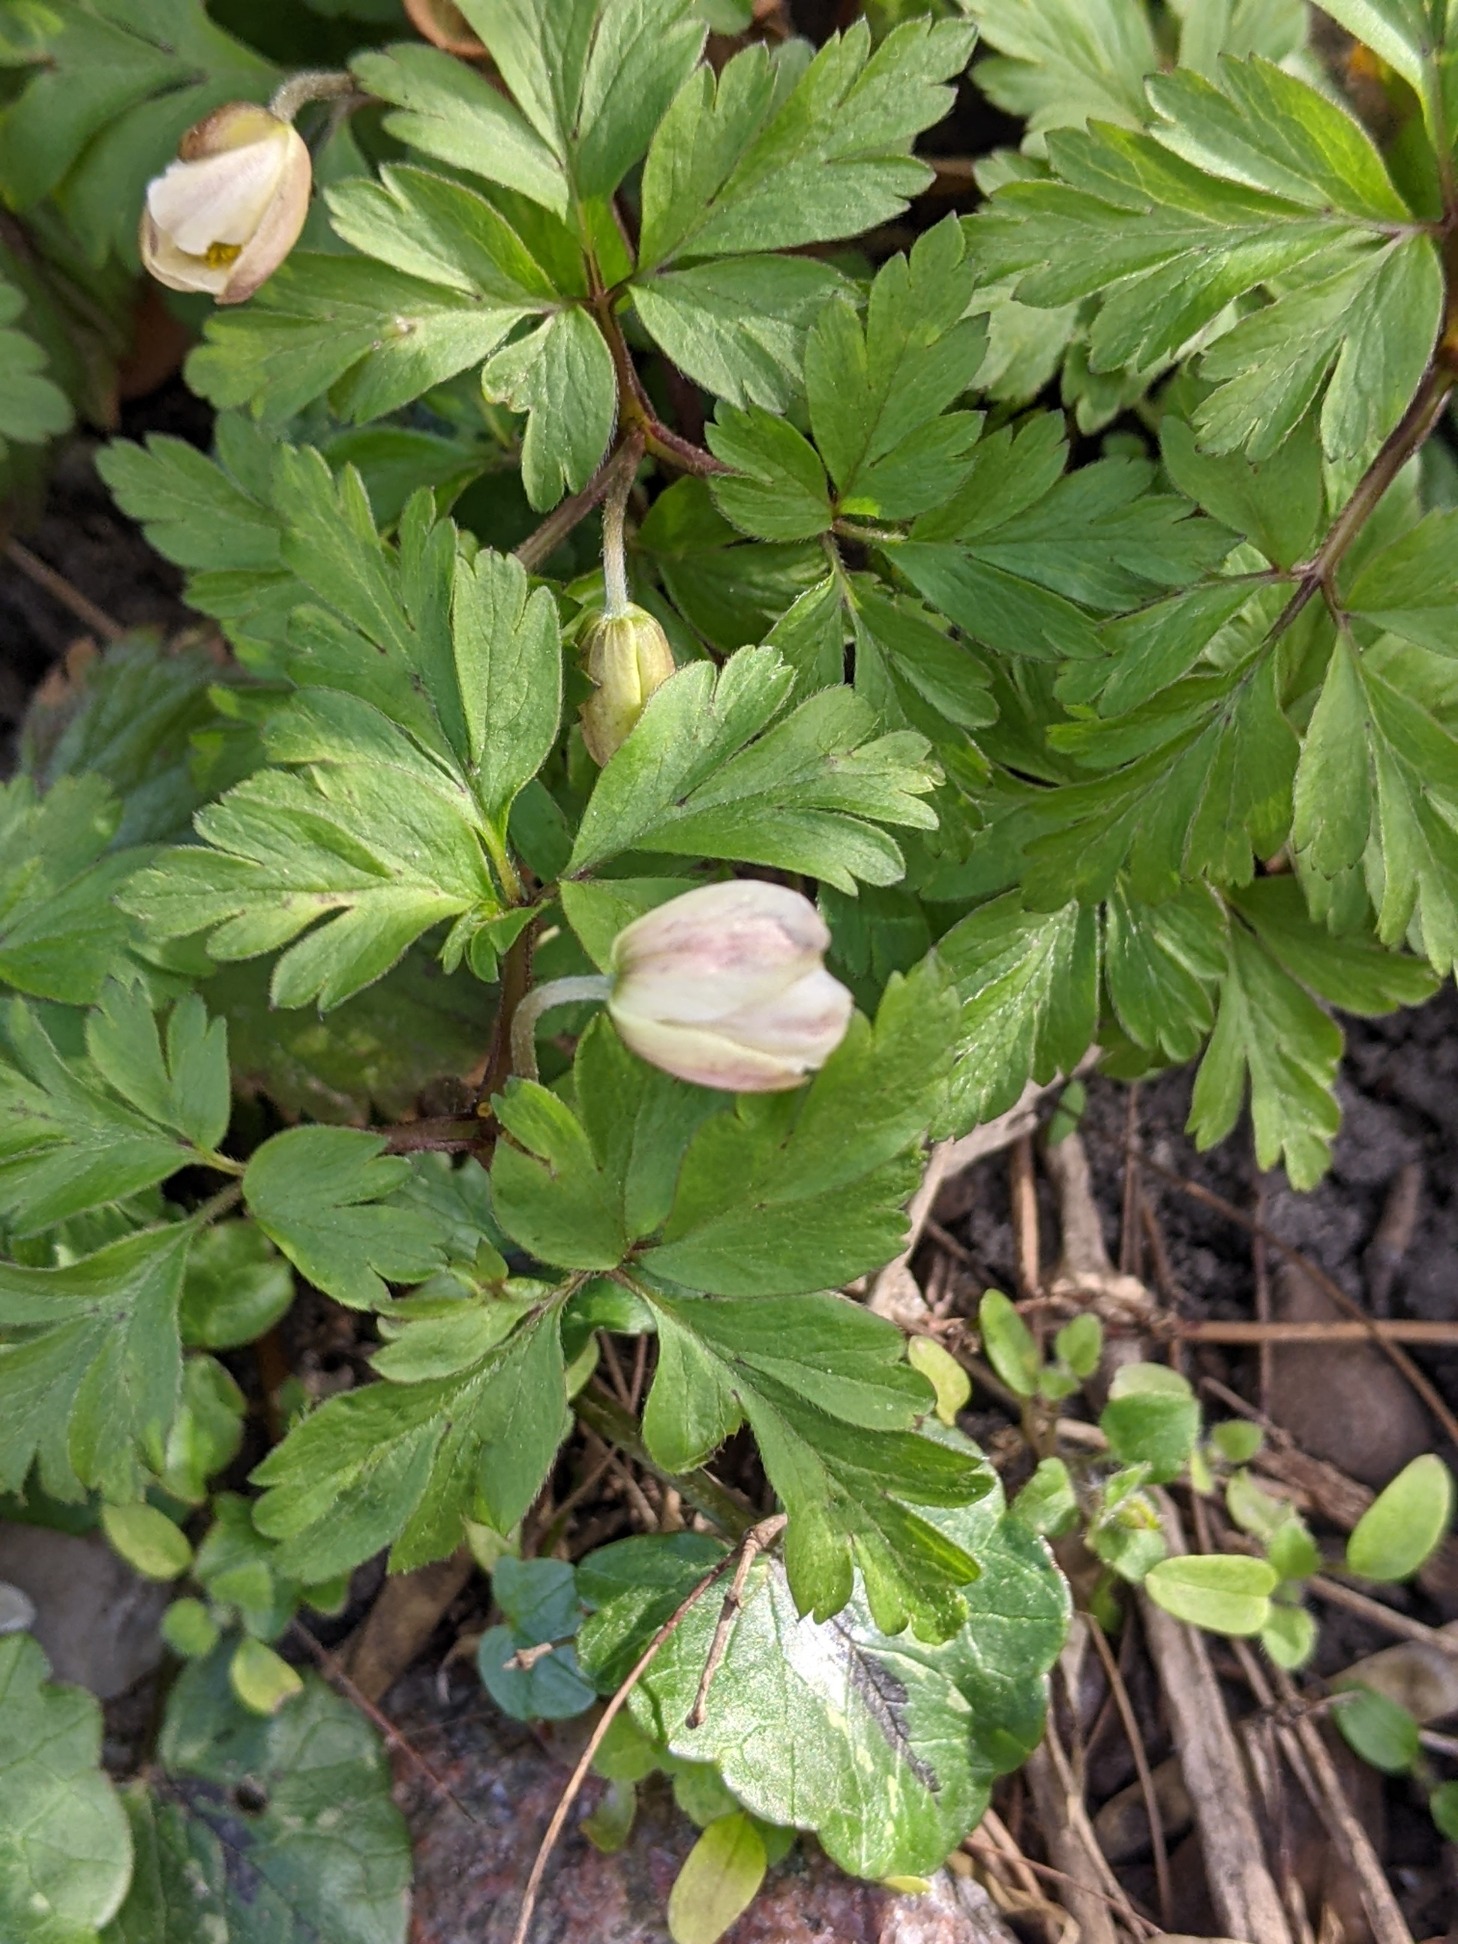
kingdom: Plantae
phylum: Tracheophyta
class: Magnoliopsida
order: Ranunculales
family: Ranunculaceae
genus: Anemone
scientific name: Anemone nemorosa
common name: Hvid anemone
